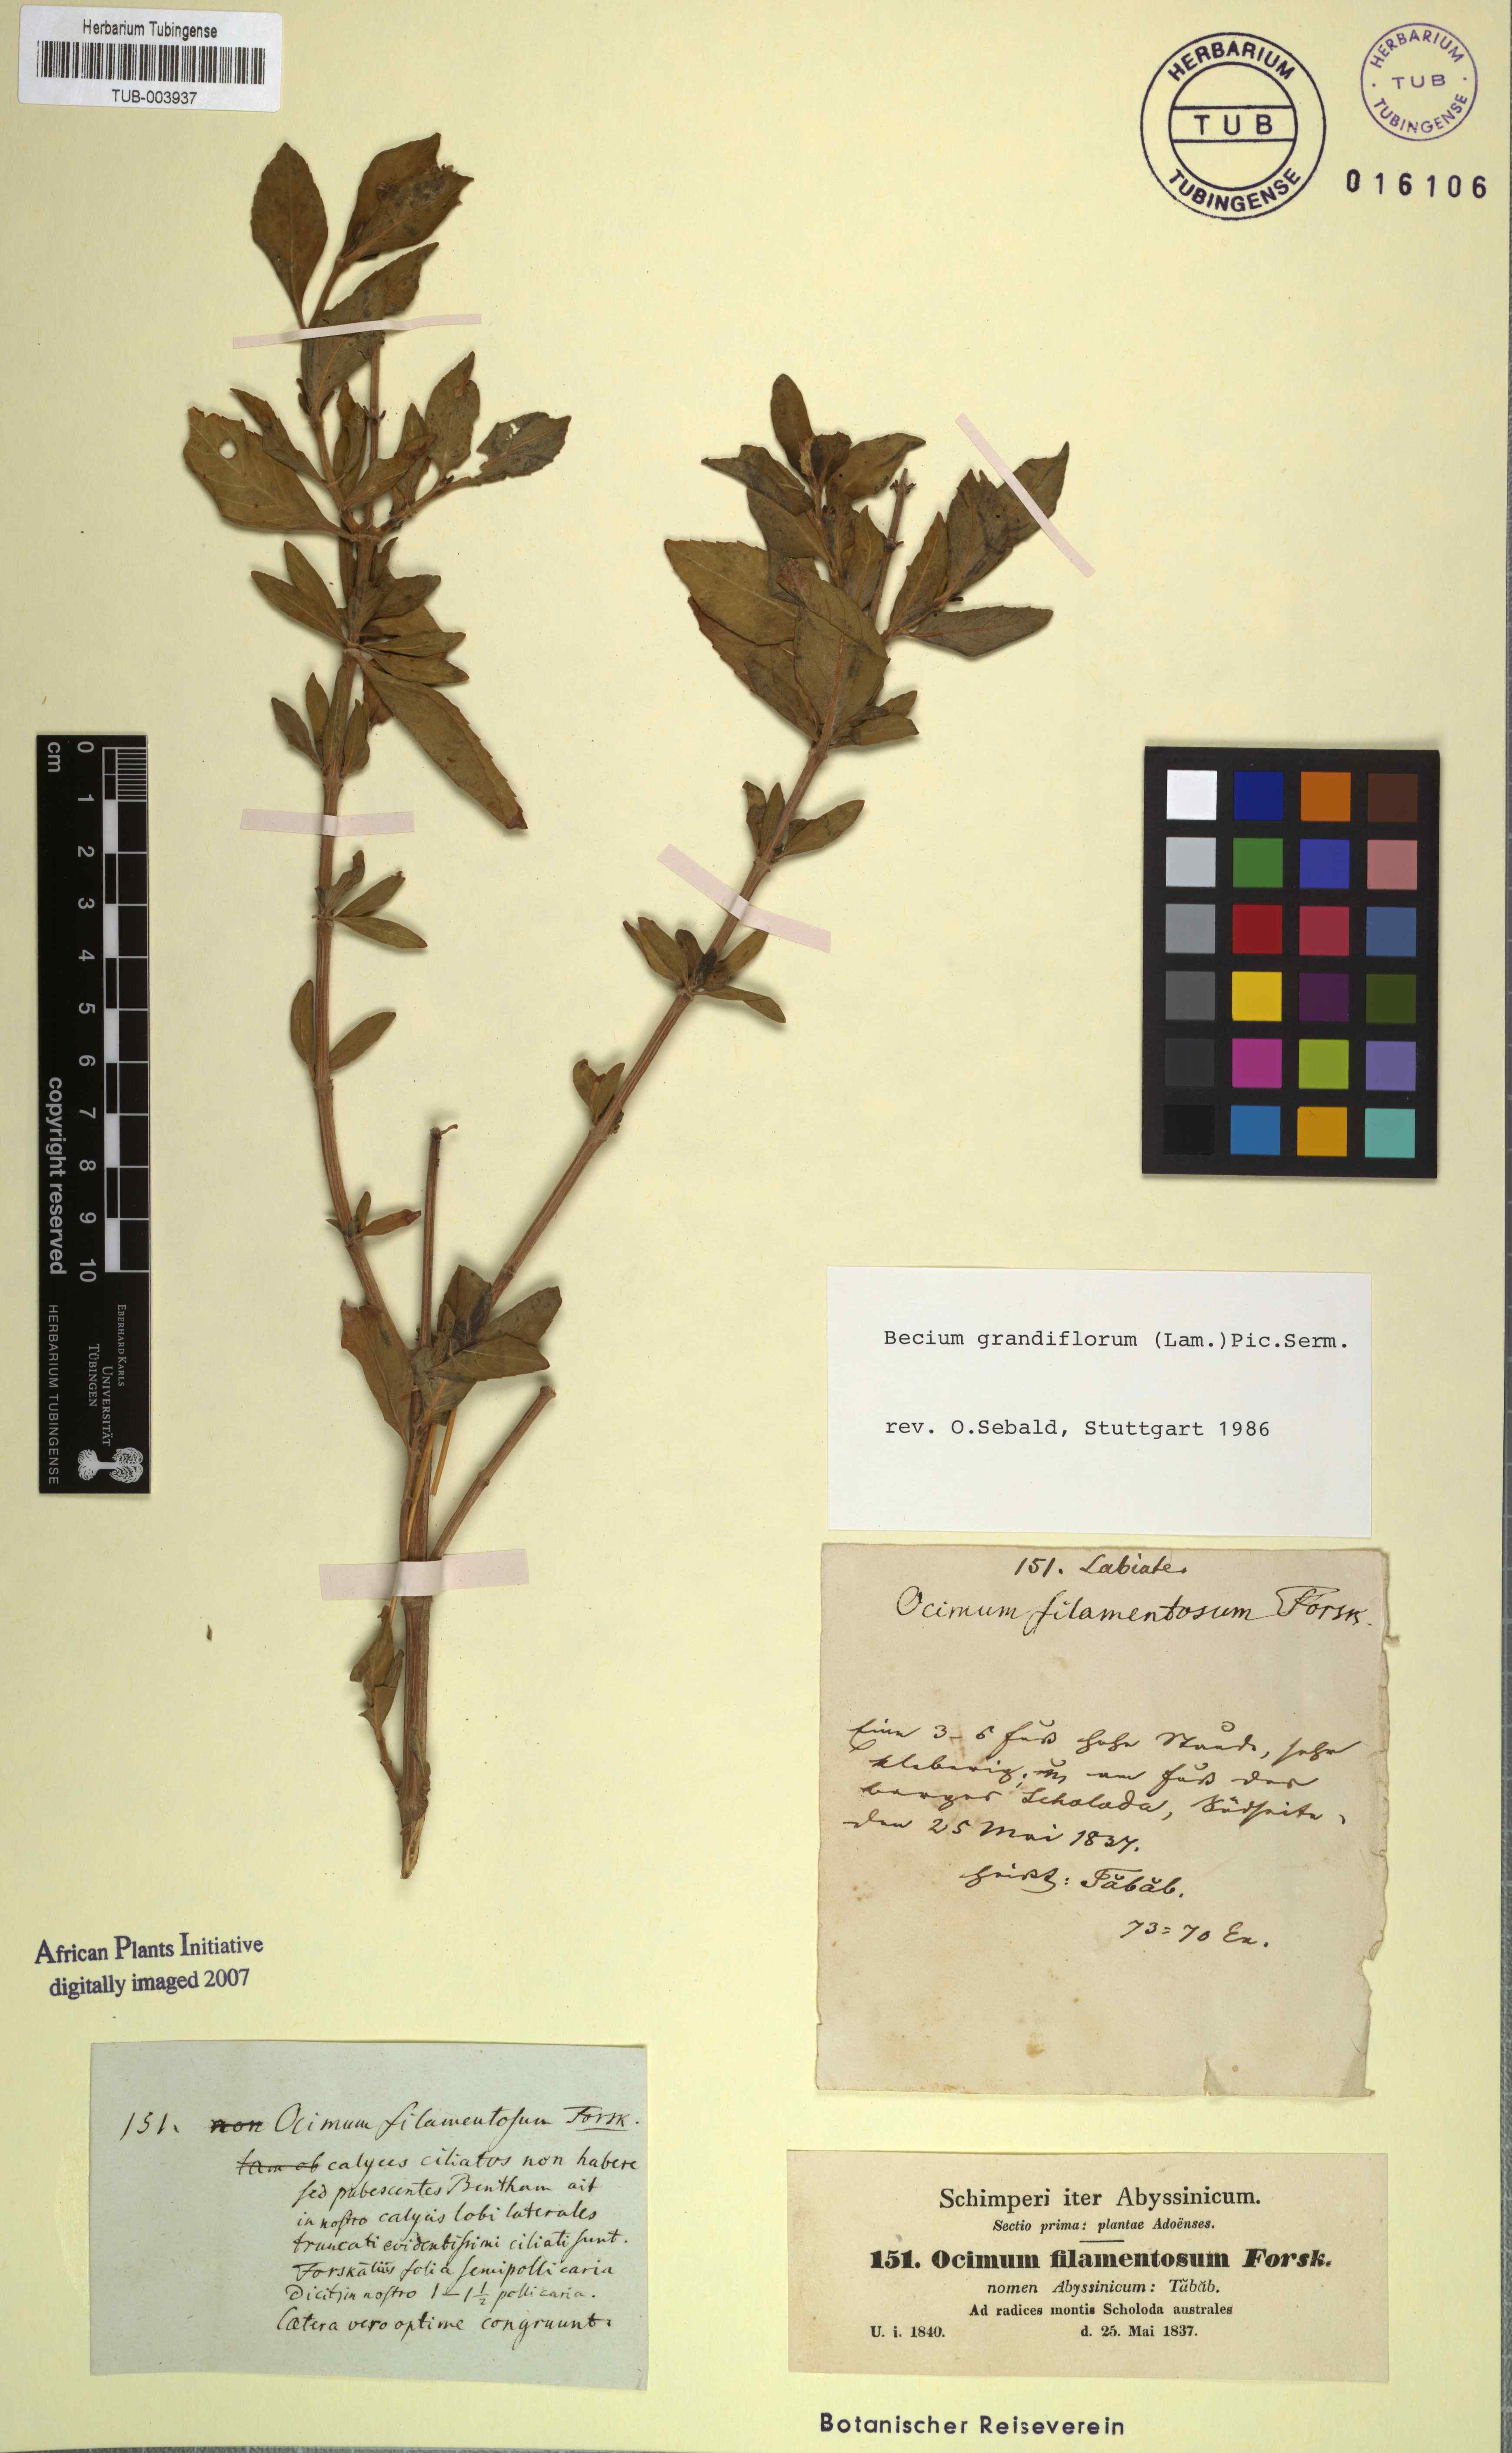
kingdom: Plantae
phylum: Tracheophyta
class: Magnoliopsida
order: Lamiales
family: Lamiaceae
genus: Ocimum
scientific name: Ocimum filamentosum
